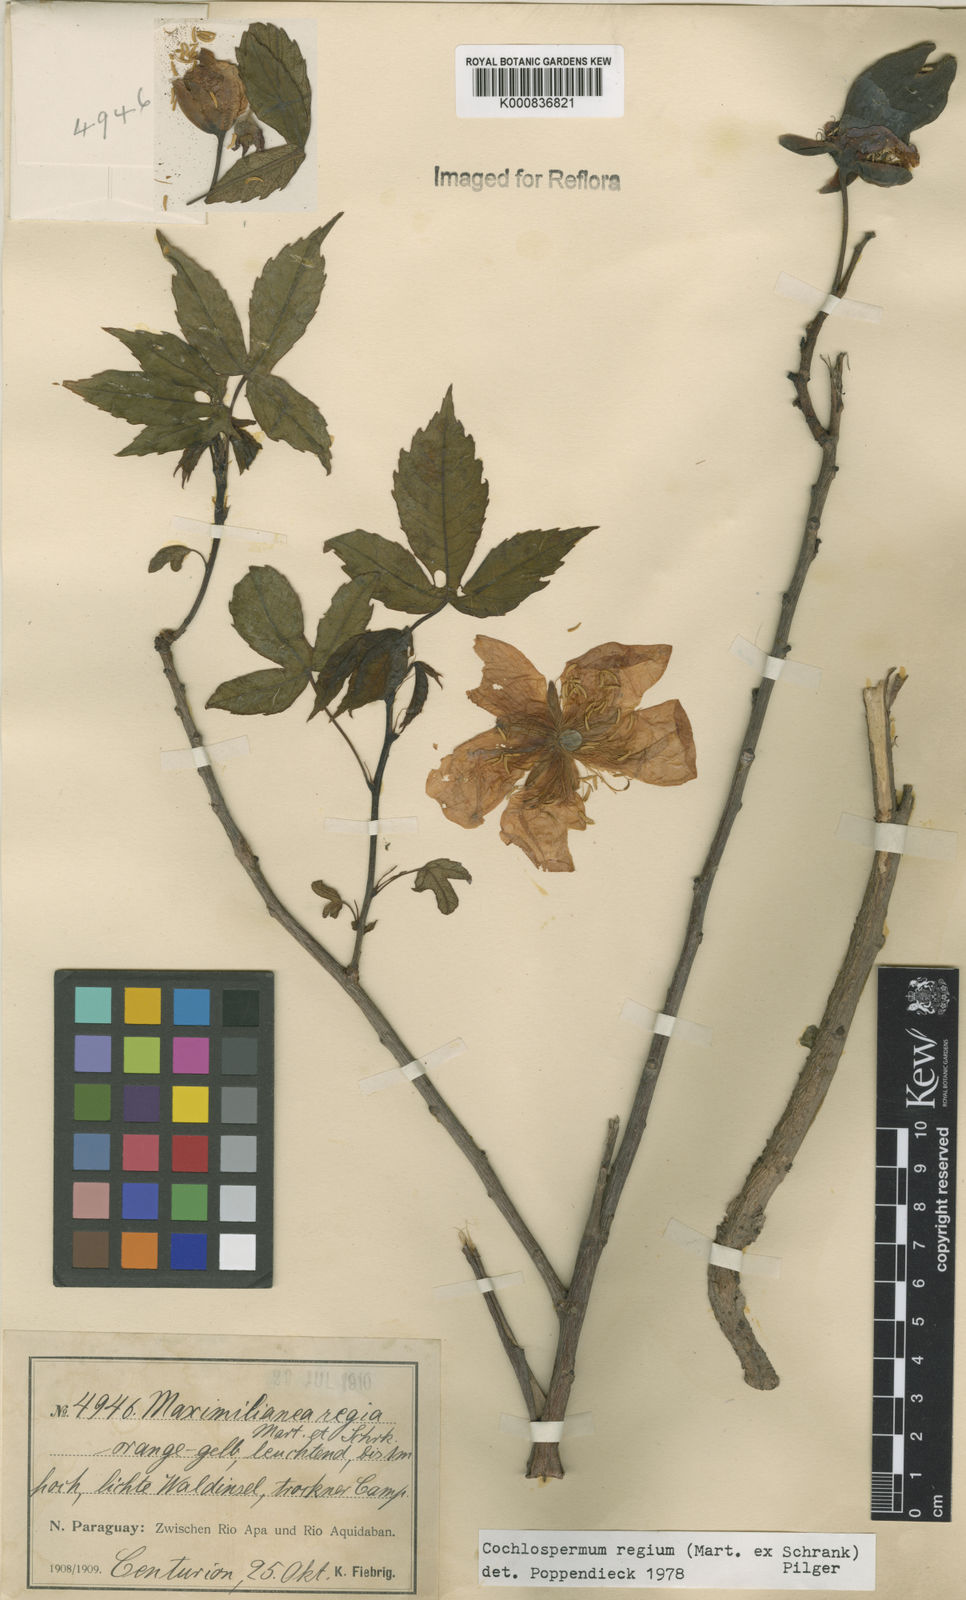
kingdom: Plantae
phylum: Tracheophyta
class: Magnoliopsida
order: Malvales
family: Cochlospermaceae
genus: Cochlospermum
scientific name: Cochlospermum regium
